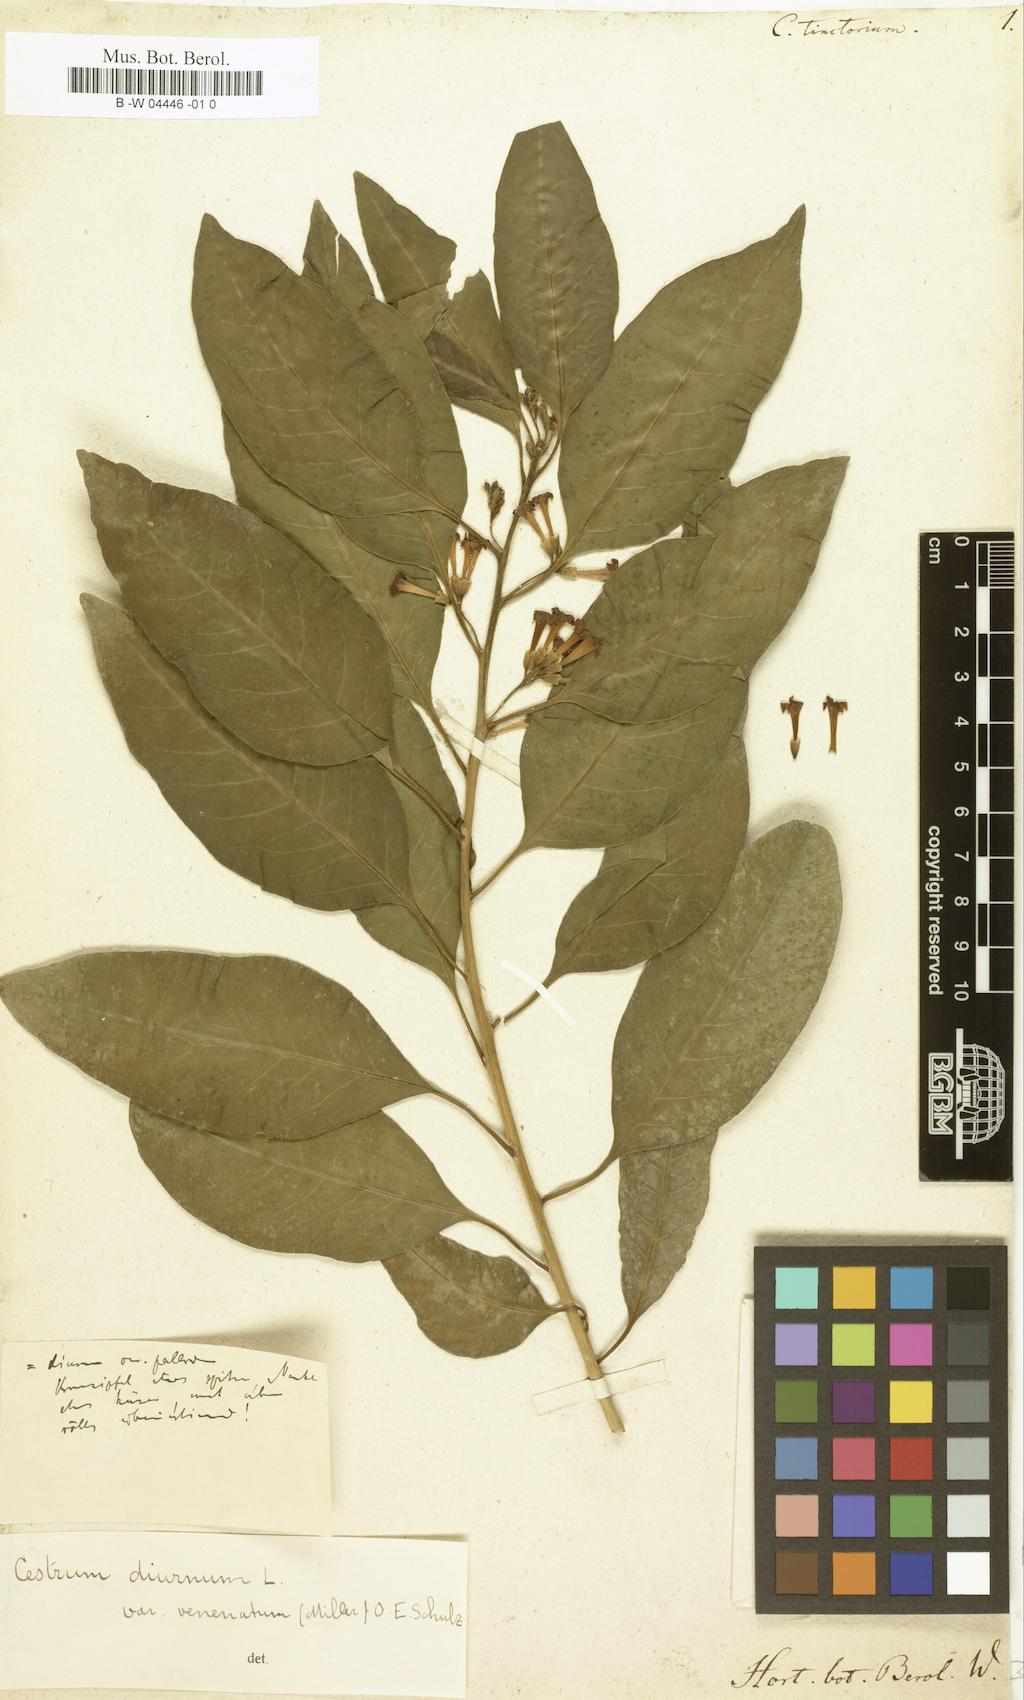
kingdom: Plantae
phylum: Tracheophyta
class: Magnoliopsida
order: Solanales
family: Solanaceae
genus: Cestrum
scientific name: Cestrum diurnum
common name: Day jessamine
